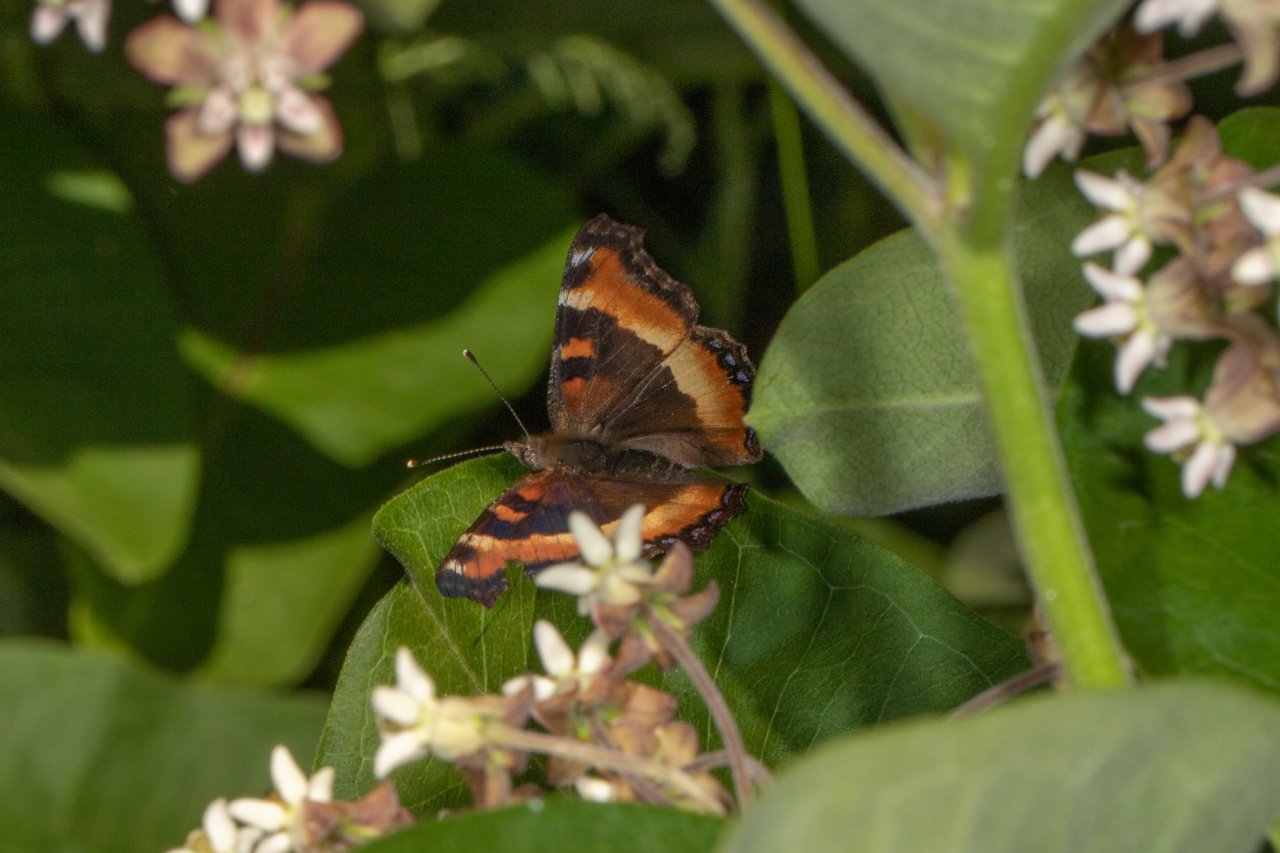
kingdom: Animalia
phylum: Arthropoda
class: Insecta
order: Lepidoptera
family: Nymphalidae
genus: Aglais
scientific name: Aglais milberti
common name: Milbert's Tortoiseshell
